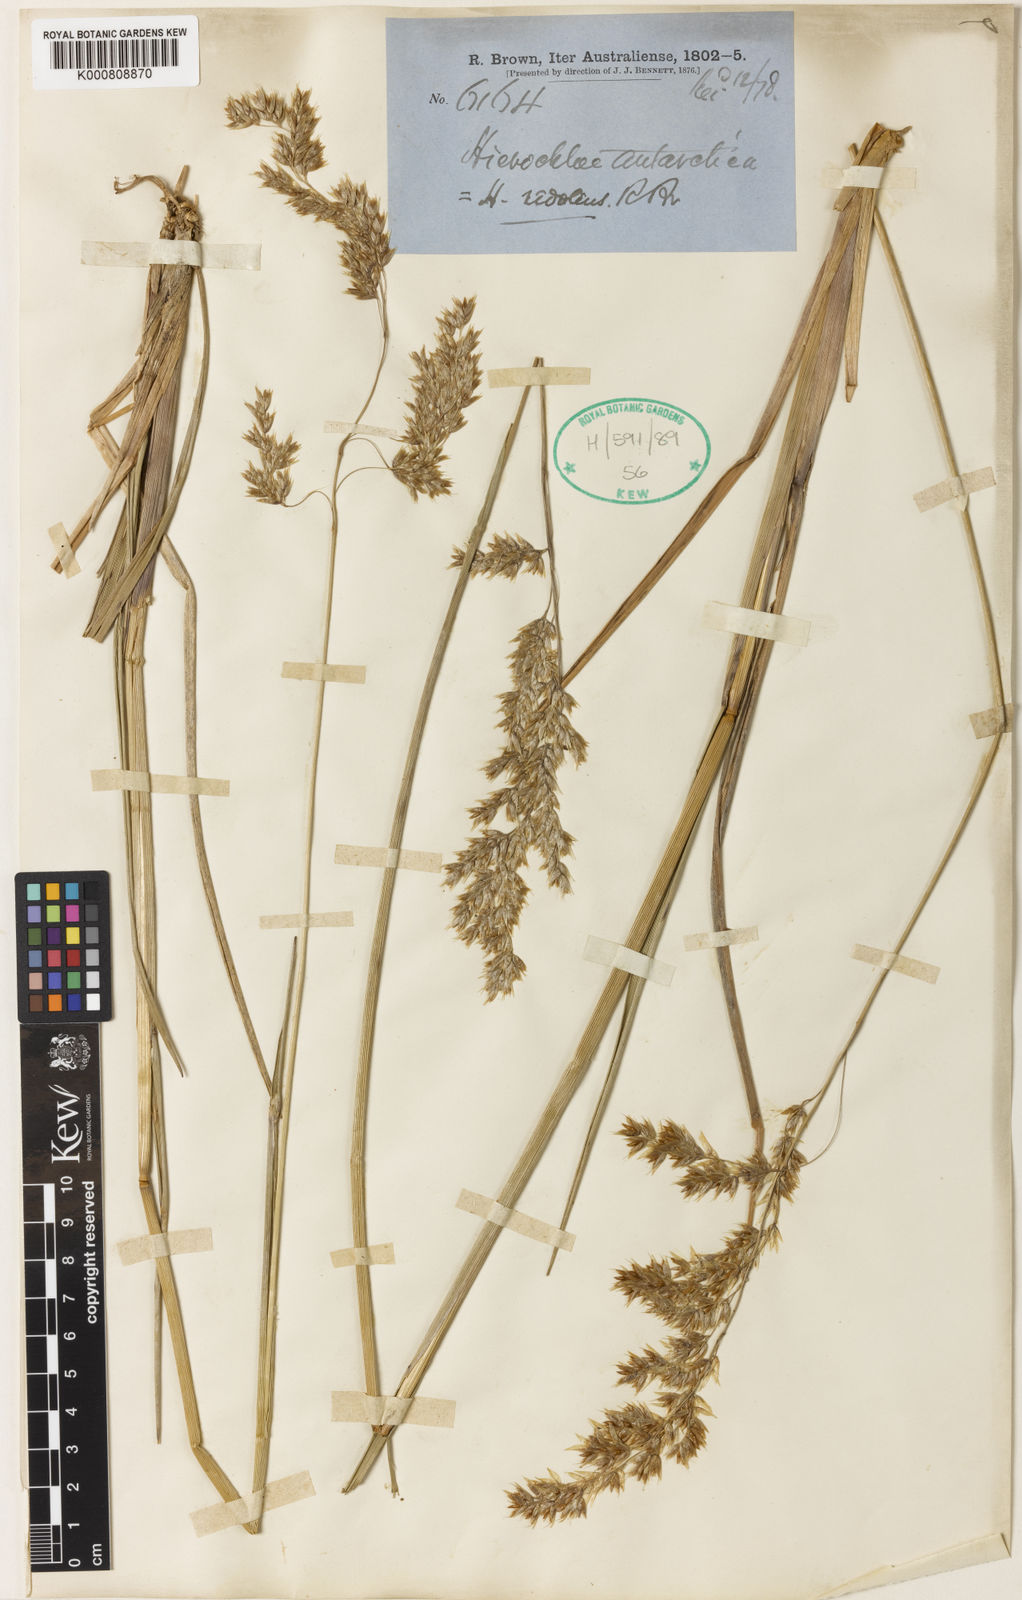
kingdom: Plantae
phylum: Tracheophyta
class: Liliopsida
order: Poales
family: Poaceae
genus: Hierochloe
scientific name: Hierochloe
